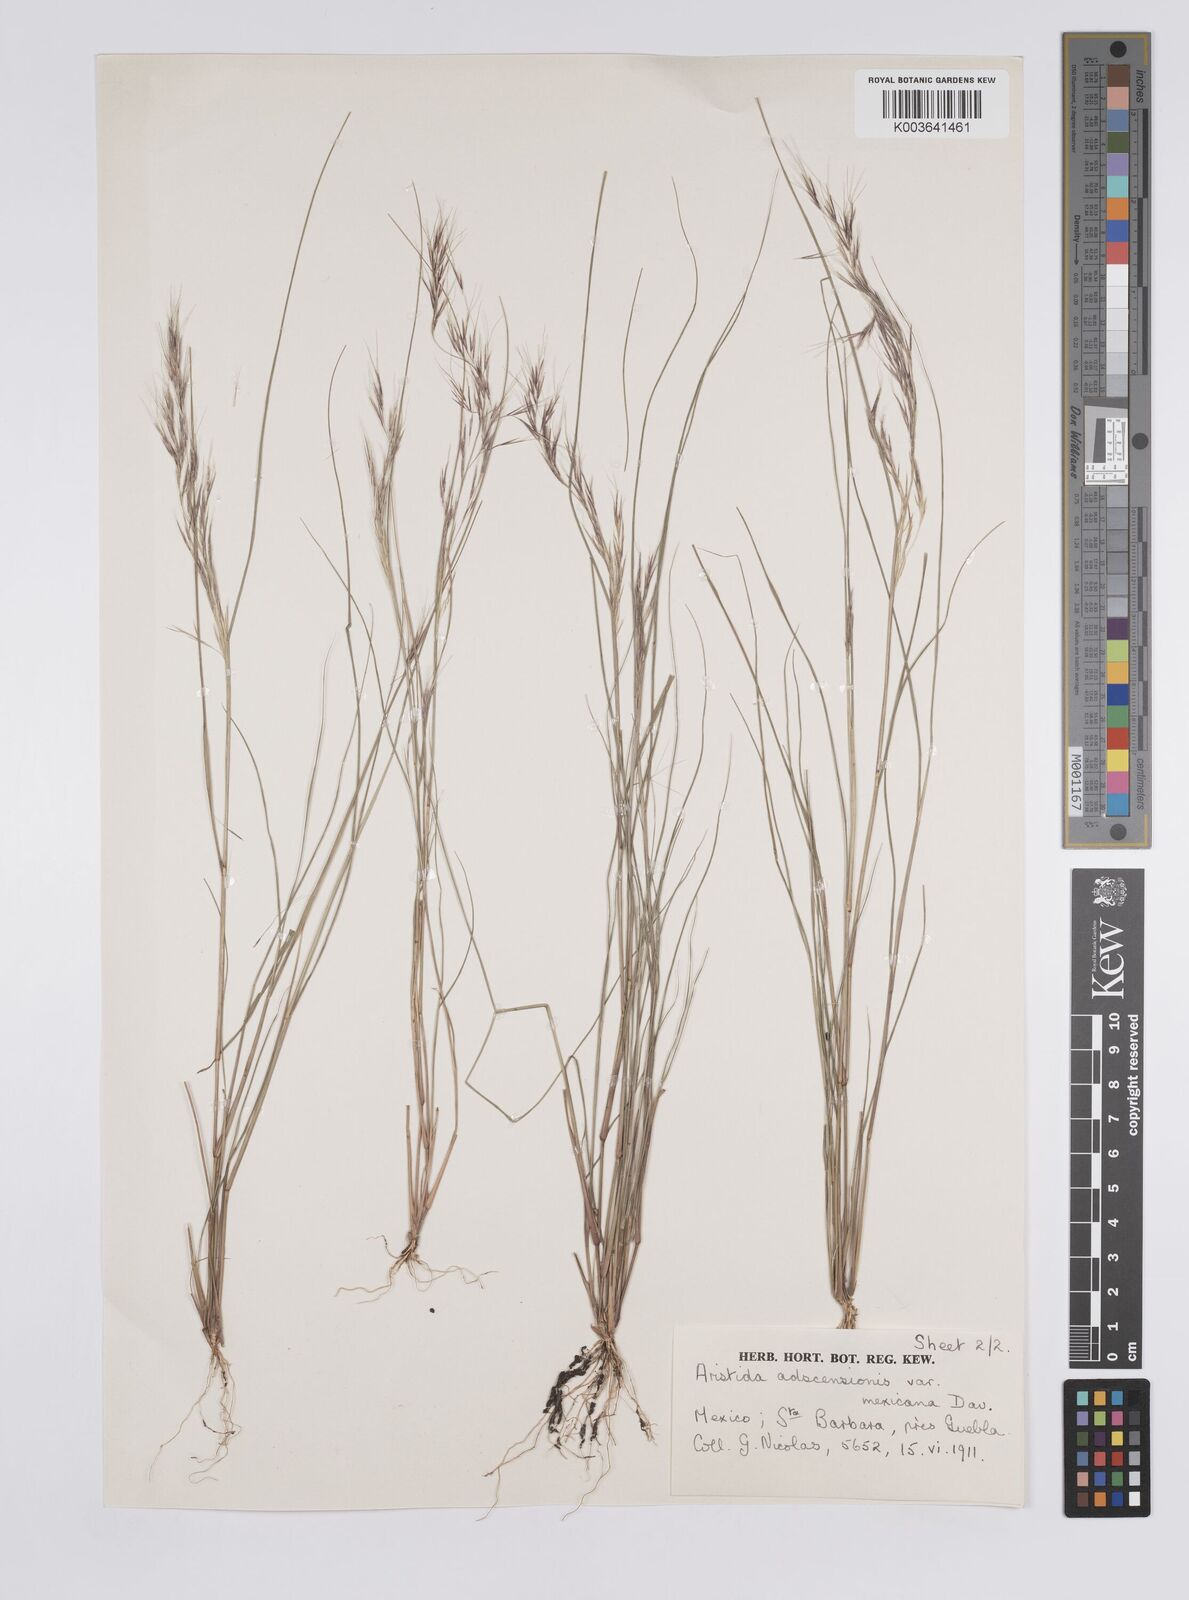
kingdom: Plantae
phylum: Tracheophyta
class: Liliopsida
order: Poales
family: Poaceae
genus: Aristida
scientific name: Aristida adscensionis
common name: Sixweeks threeawn
